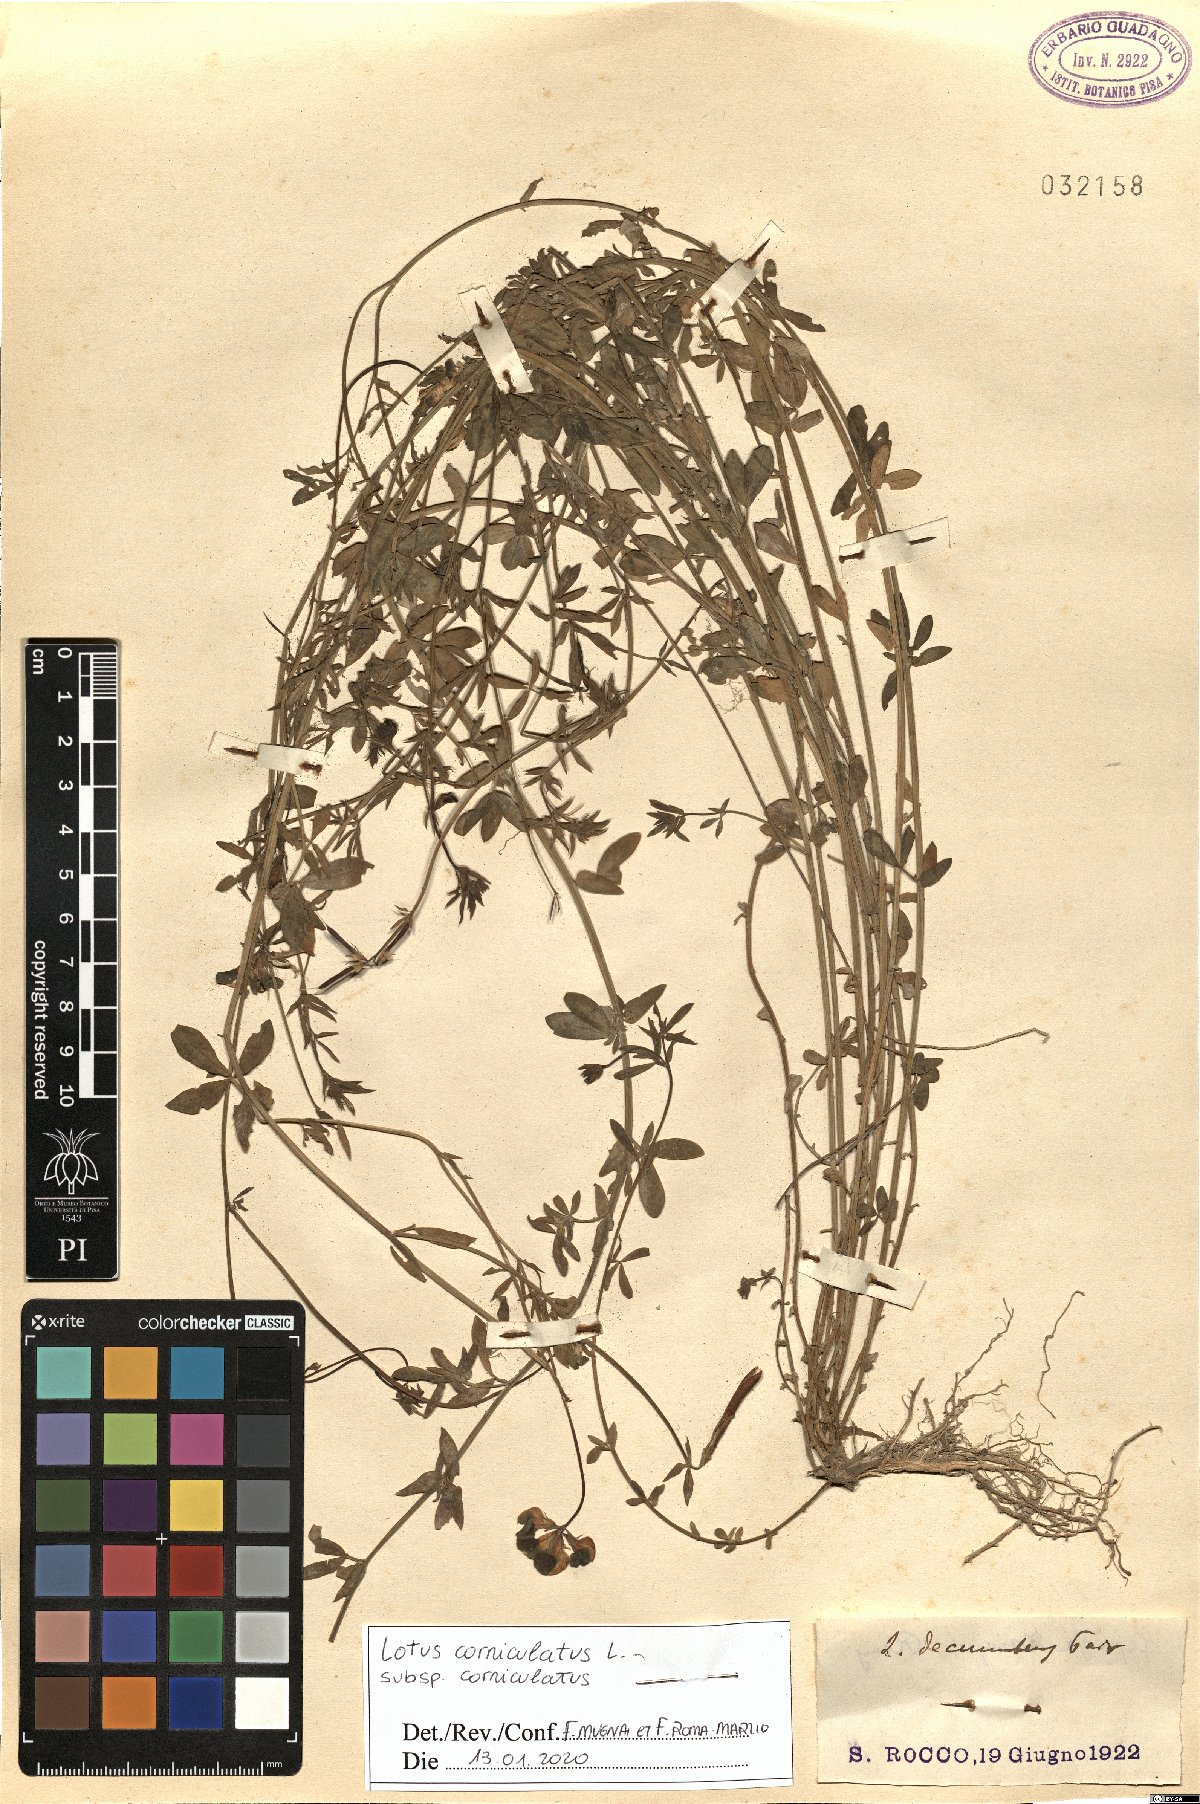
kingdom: Plantae
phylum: Tracheophyta
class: Magnoliopsida
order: Fabales
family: Fabaceae
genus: Lotus
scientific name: Lotus corniculatus
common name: Common bird's-foot-trefoil
